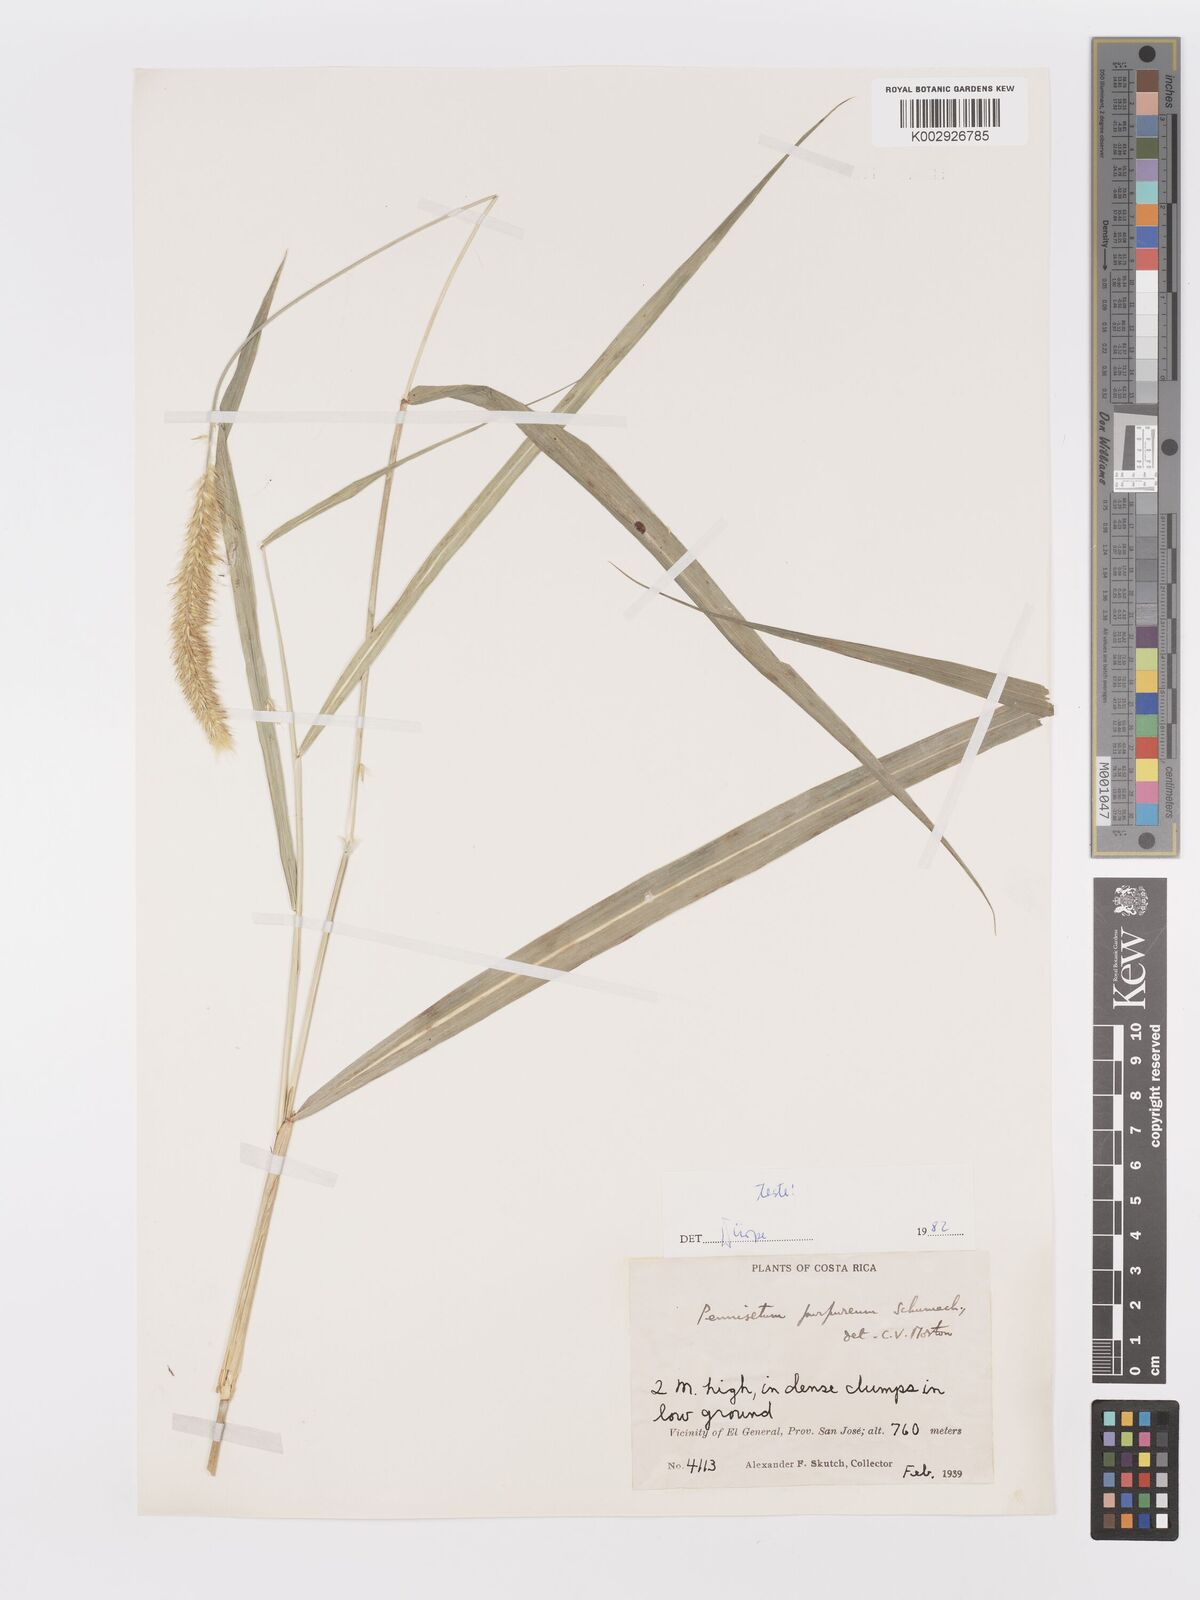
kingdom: Plantae
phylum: Tracheophyta
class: Liliopsida
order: Poales
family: Poaceae
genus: Cenchrus
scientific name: Cenchrus purpureus
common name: Elephant grass
